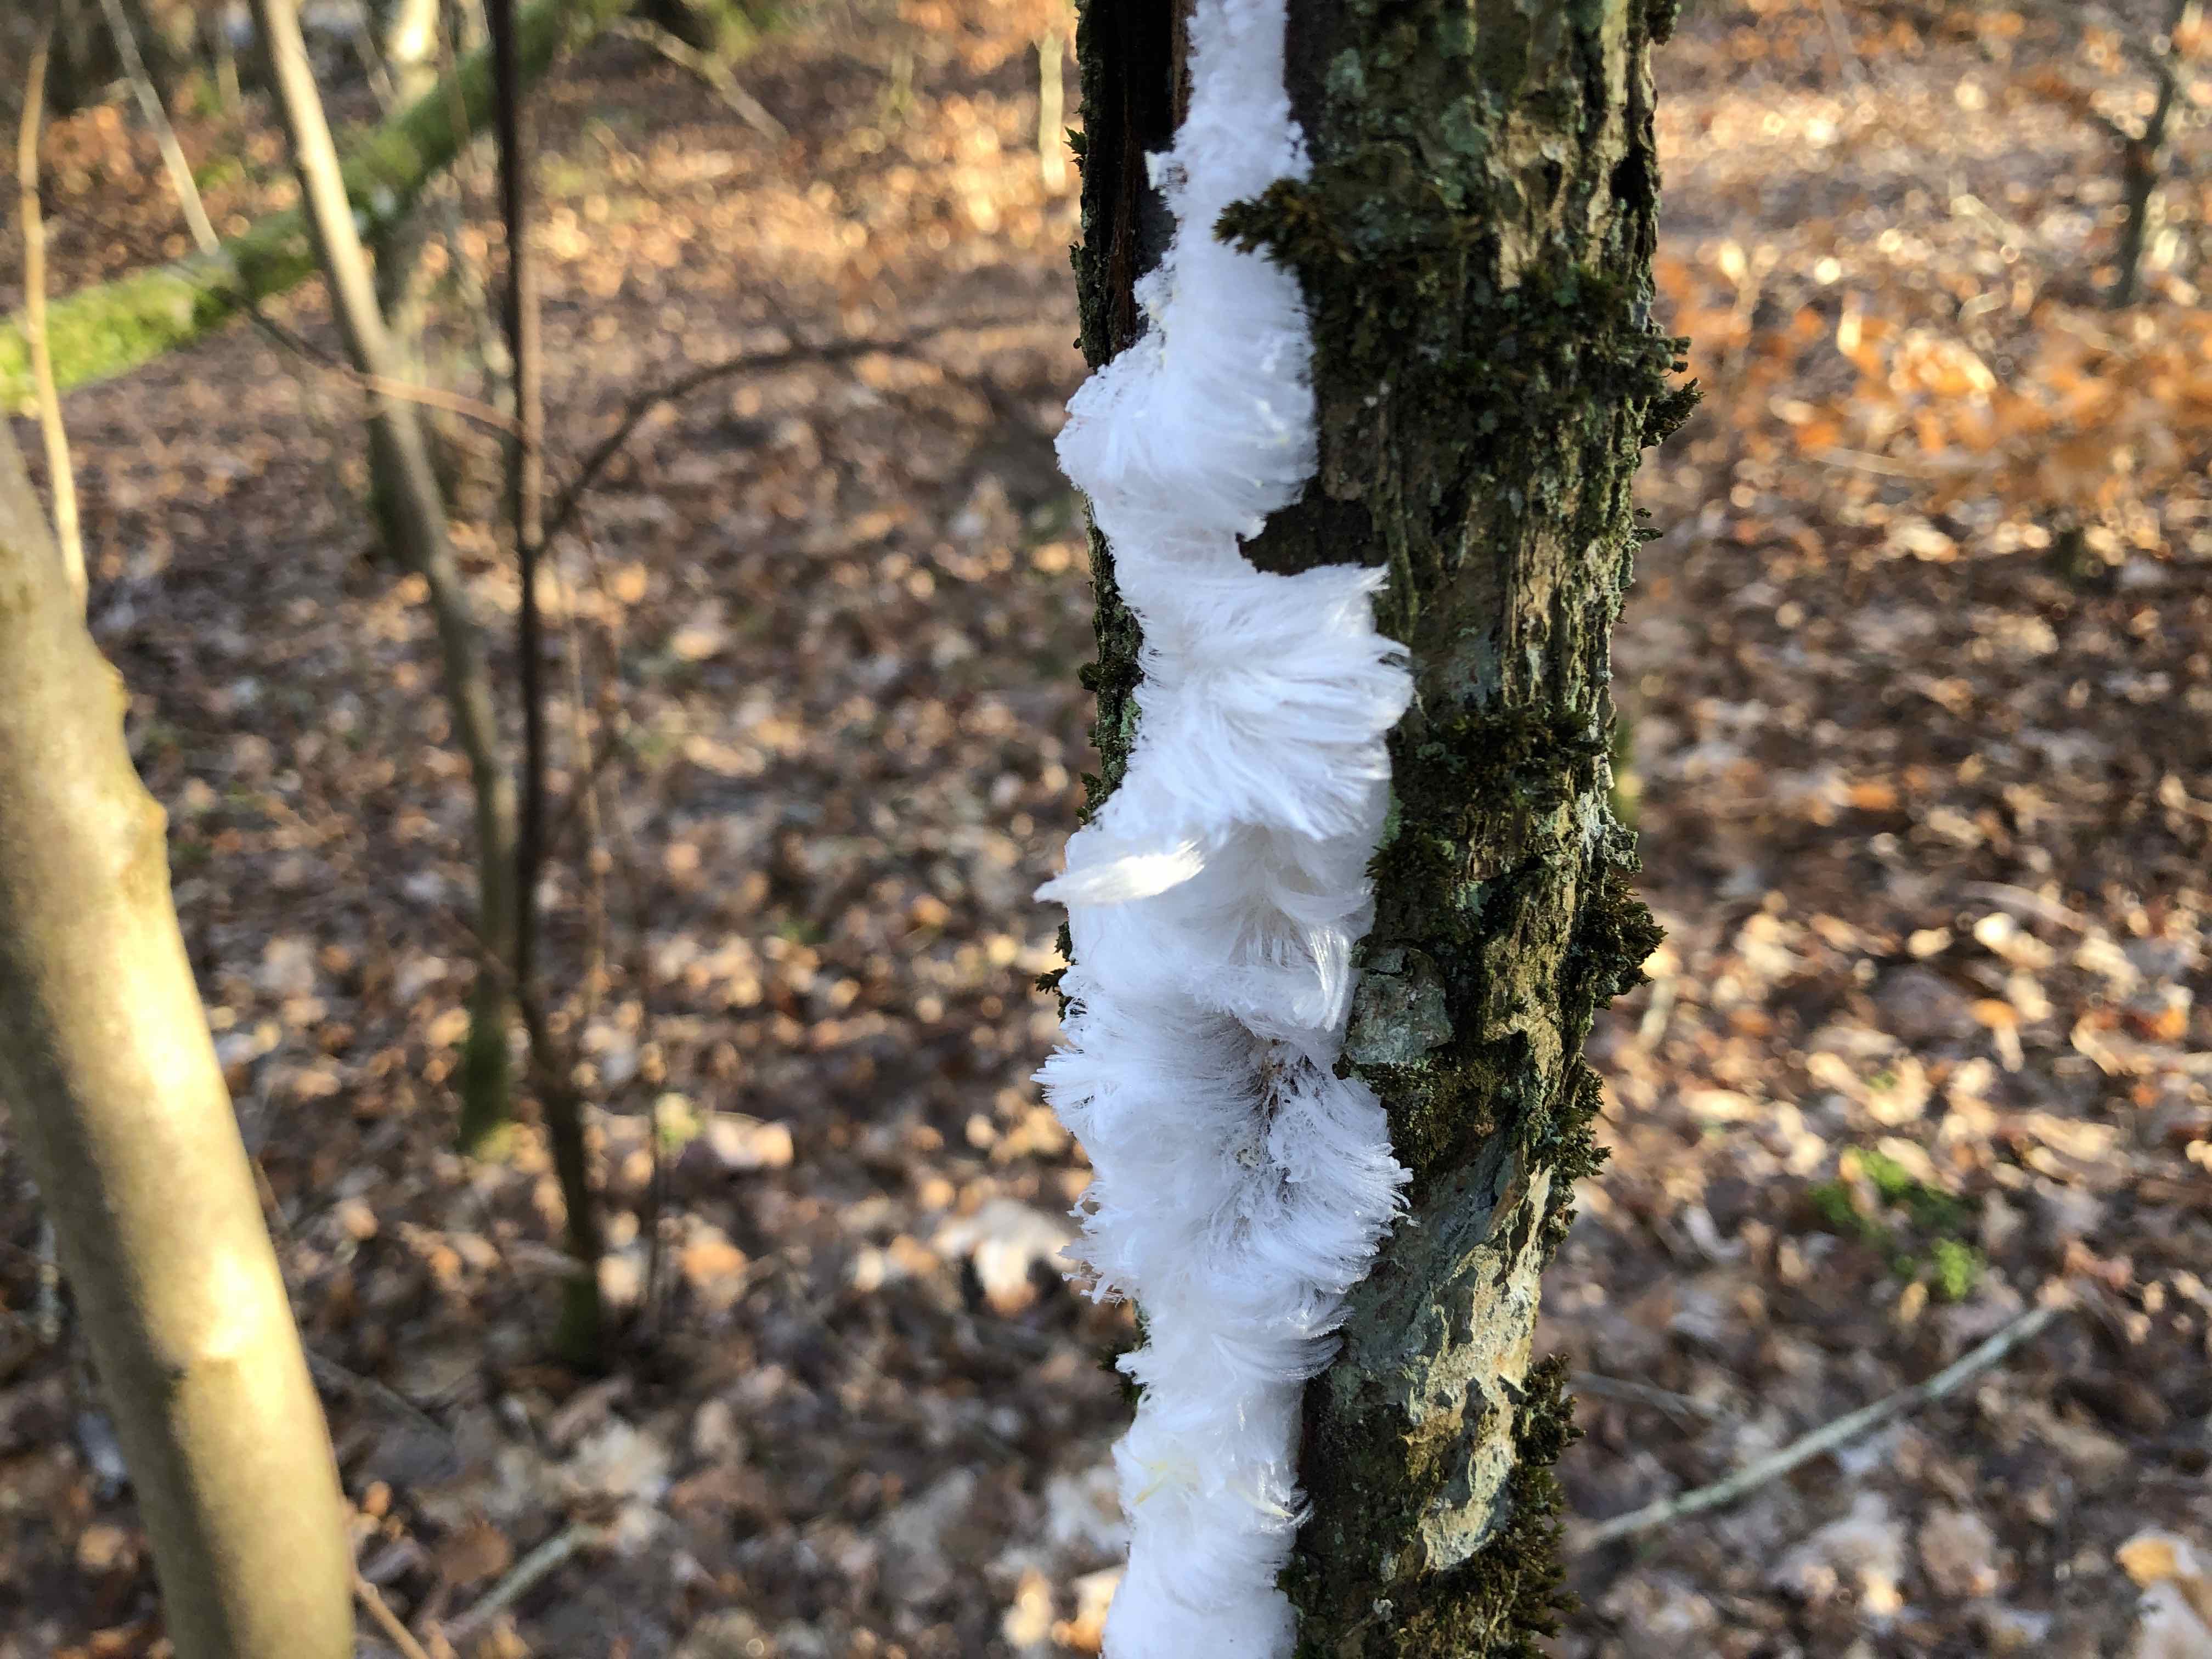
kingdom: Fungi
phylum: Basidiomycota
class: Tremellomycetes
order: Tremellales
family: Exidiaceae
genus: Exidiopsis
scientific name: Exidiopsis effusa
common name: smuk bævrehinde
